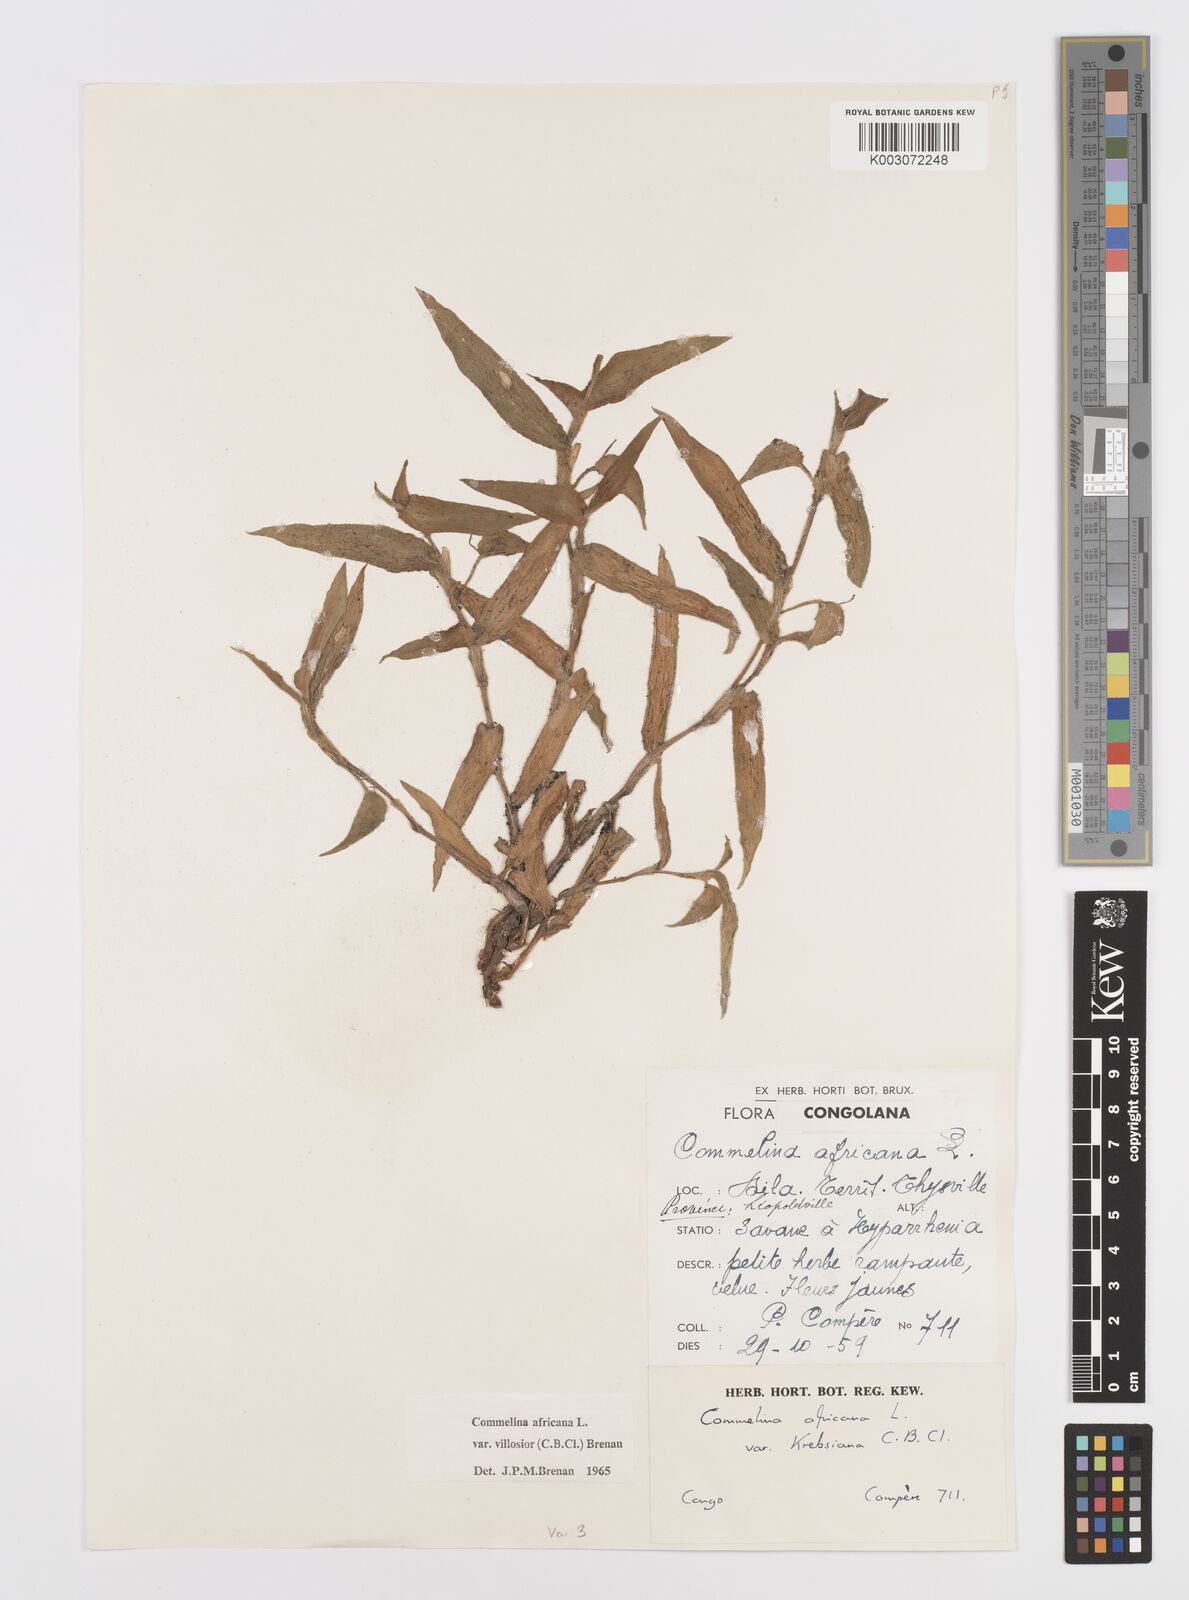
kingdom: Plantae
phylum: Tracheophyta
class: Liliopsida
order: Commelinales
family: Commelinaceae
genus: Commelina
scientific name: Commelina africana
